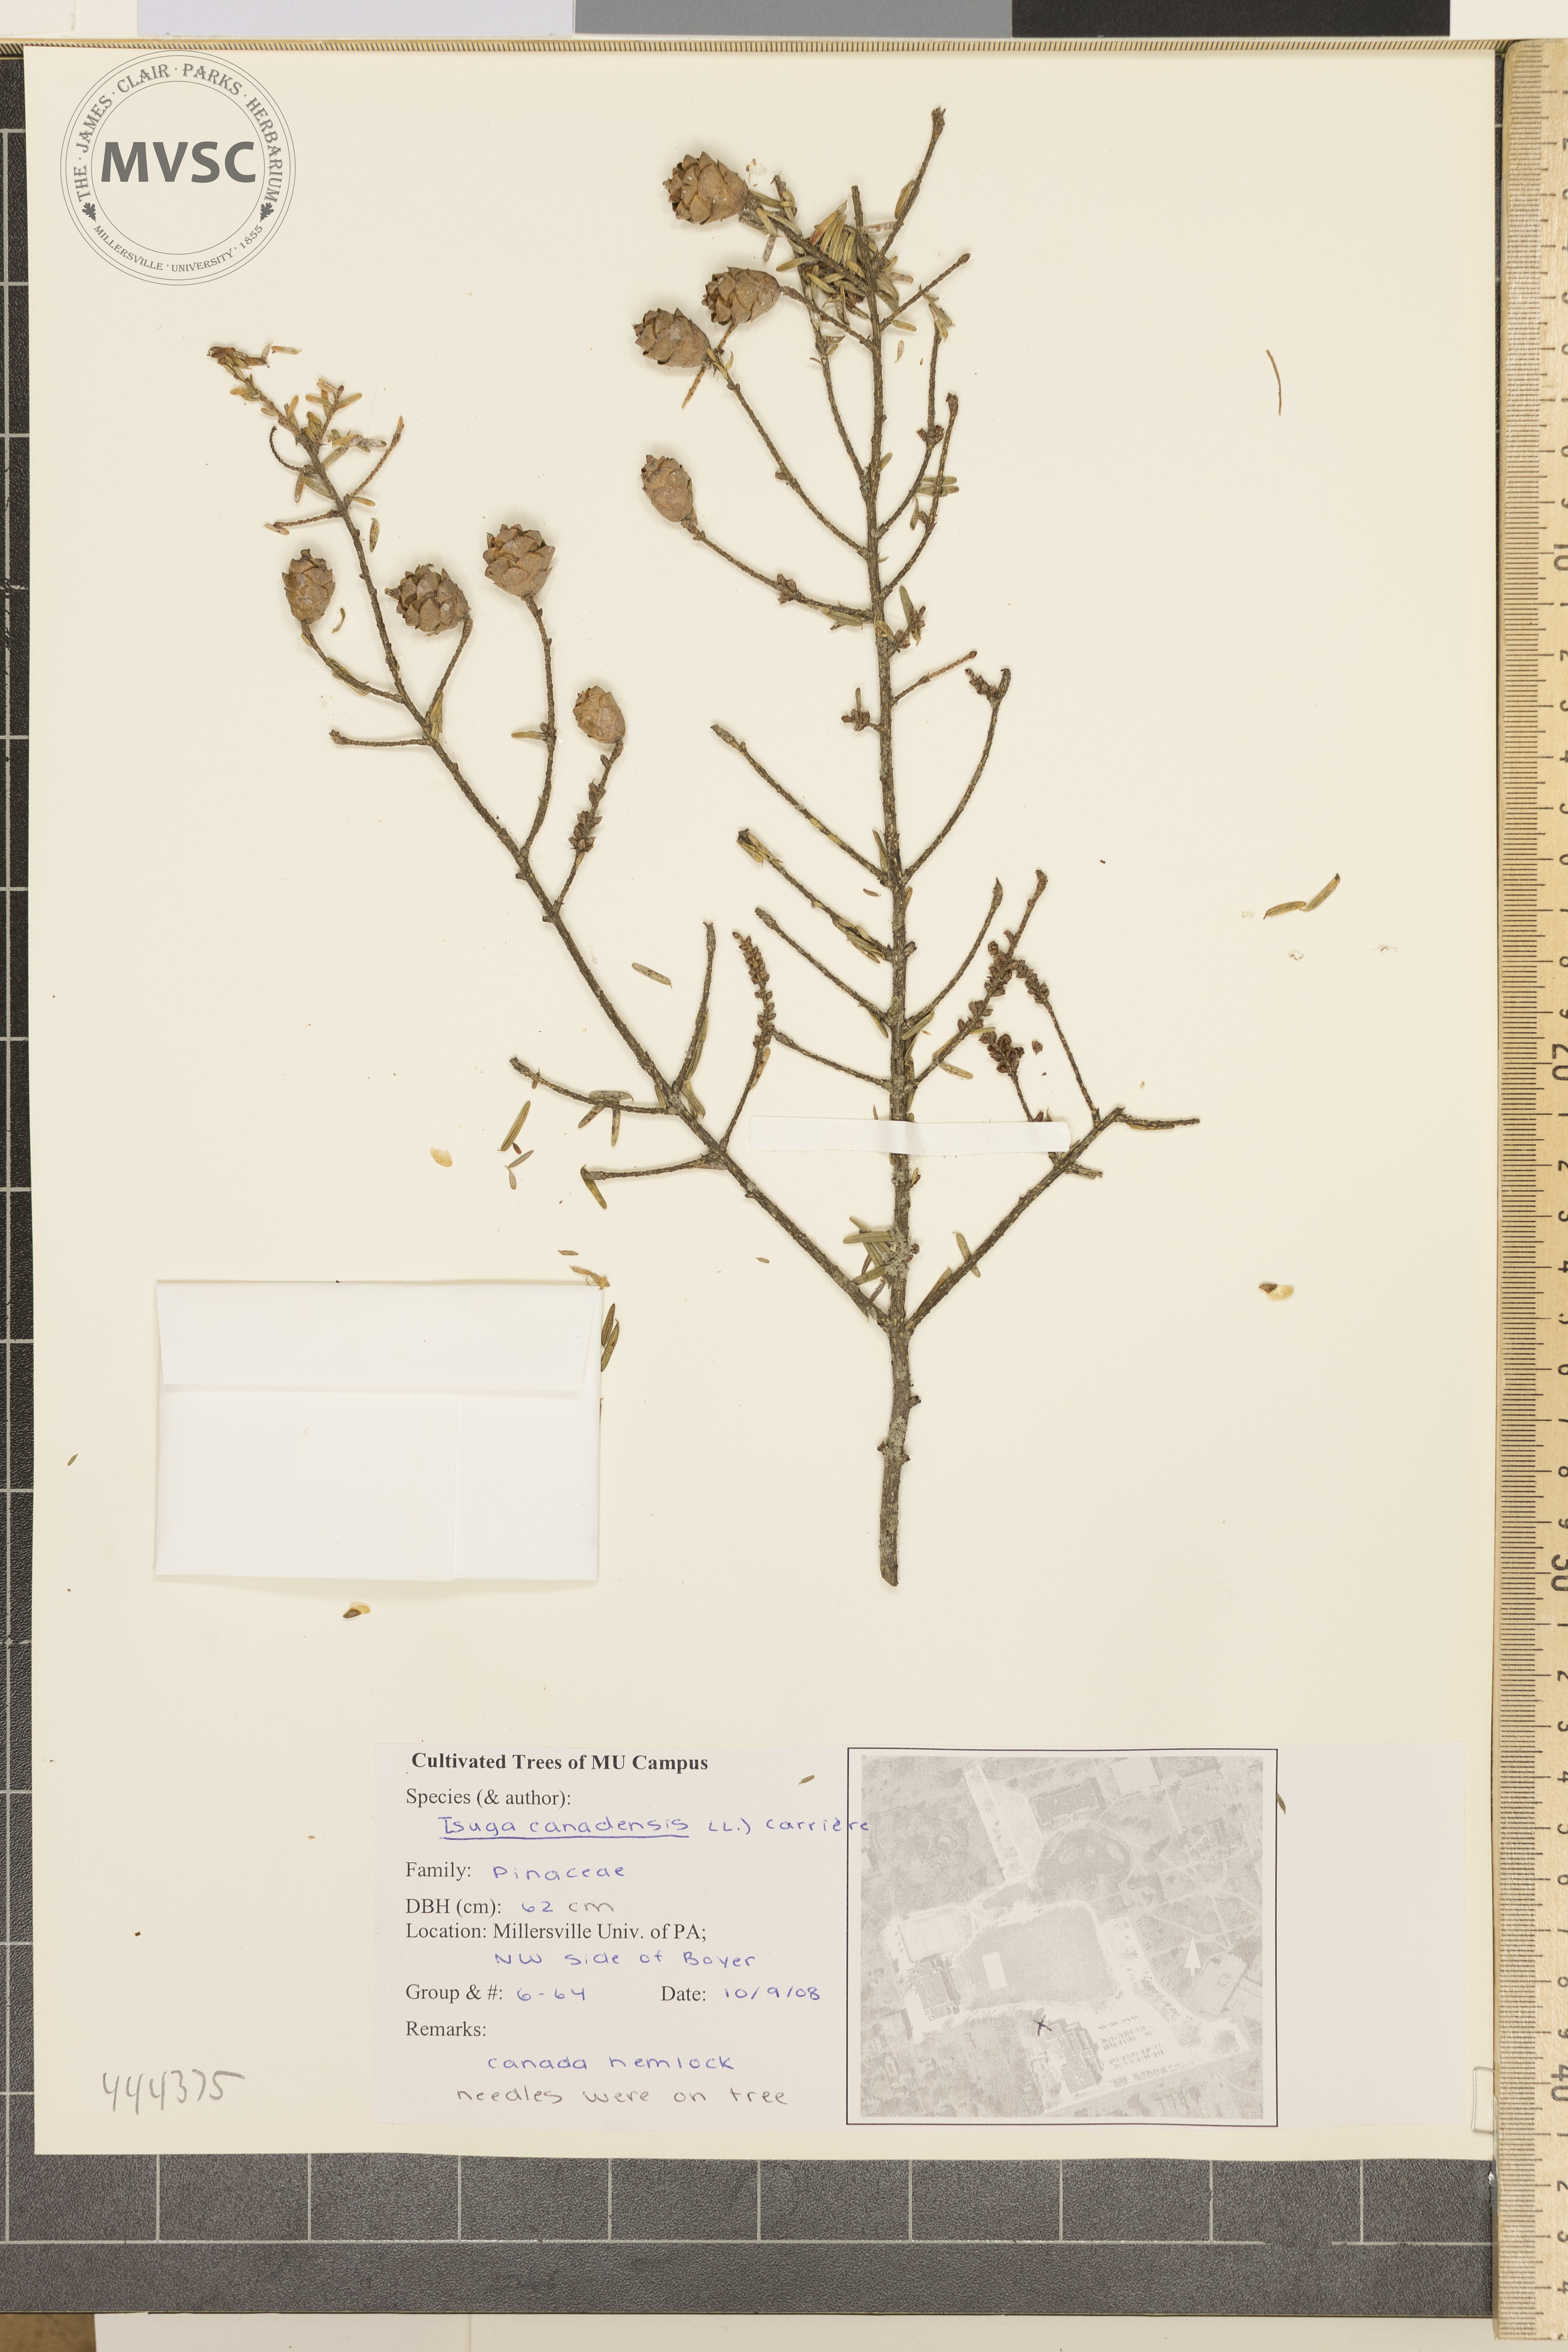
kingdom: Plantae
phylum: Tracheophyta
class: Pinopsida
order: Pinales
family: Pinaceae
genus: Tsuga
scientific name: Tsuga canadensis
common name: Canada hemlock
